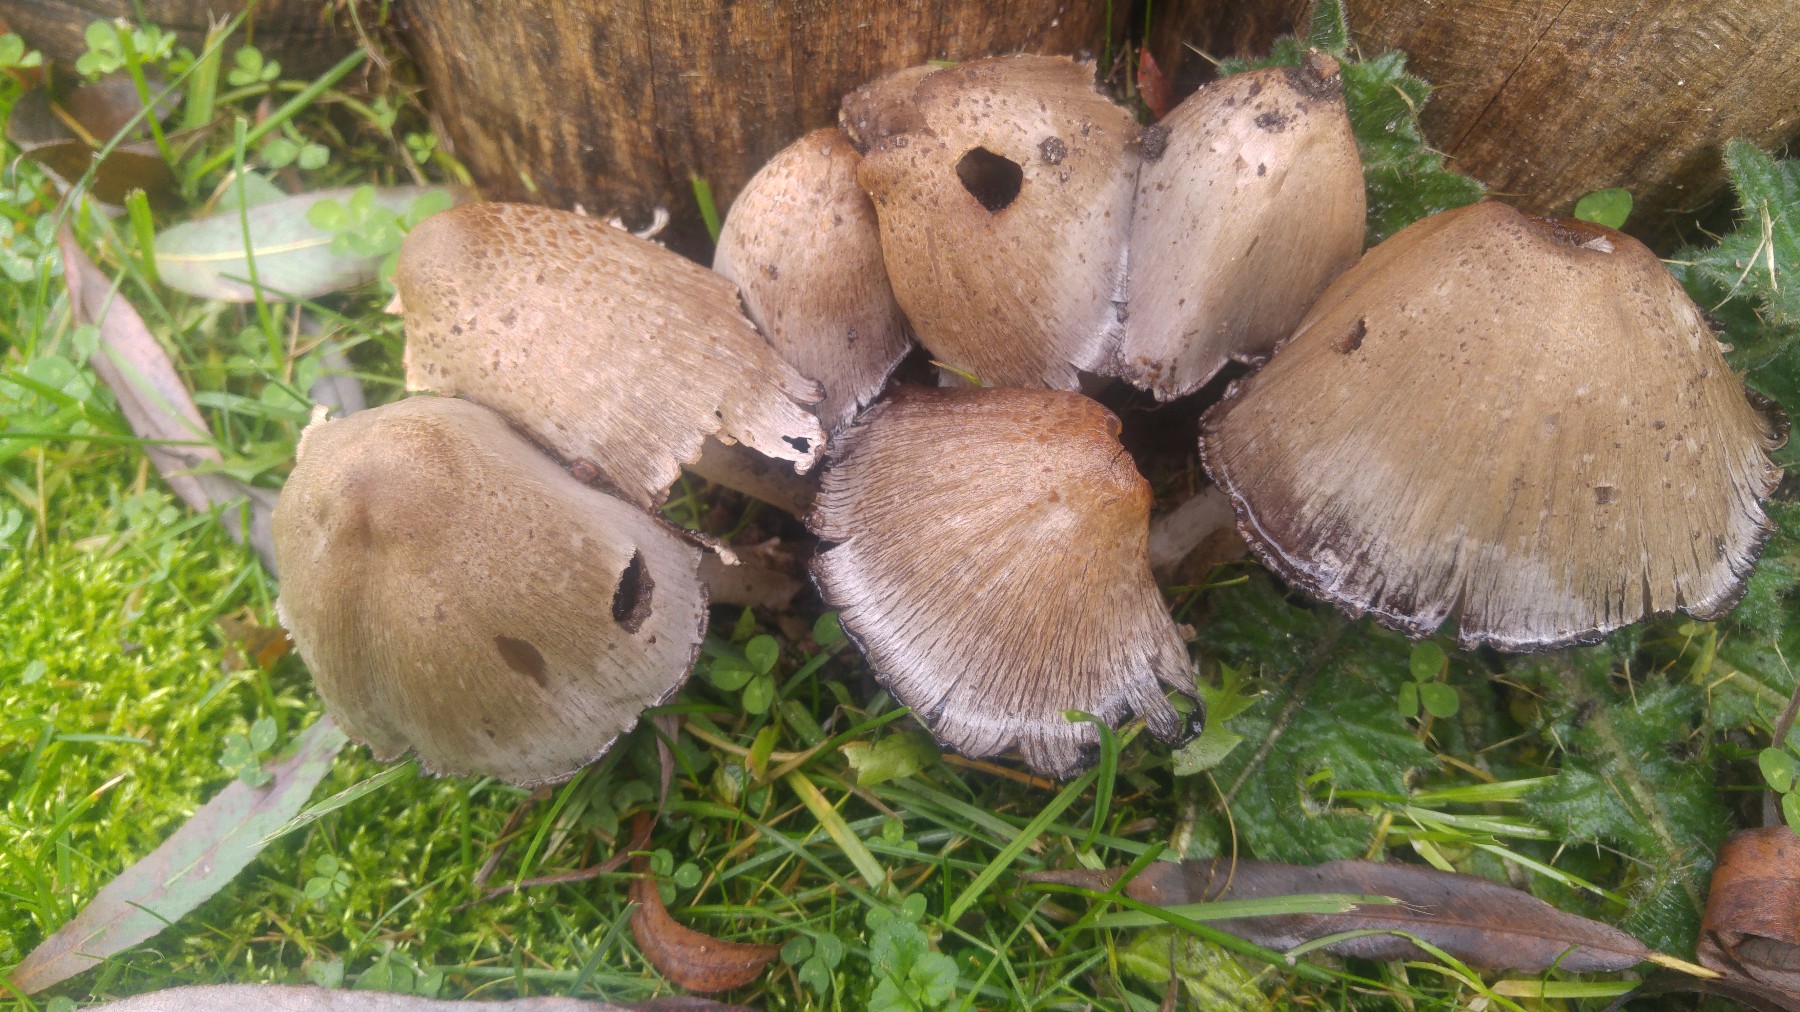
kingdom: Fungi
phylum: Basidiomycota
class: Agaricomycetes
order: Agaricales
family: Psathyrellaceae
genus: Coprinopsis
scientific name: Coprinopsis atramentaria
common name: almindelig blækhat
